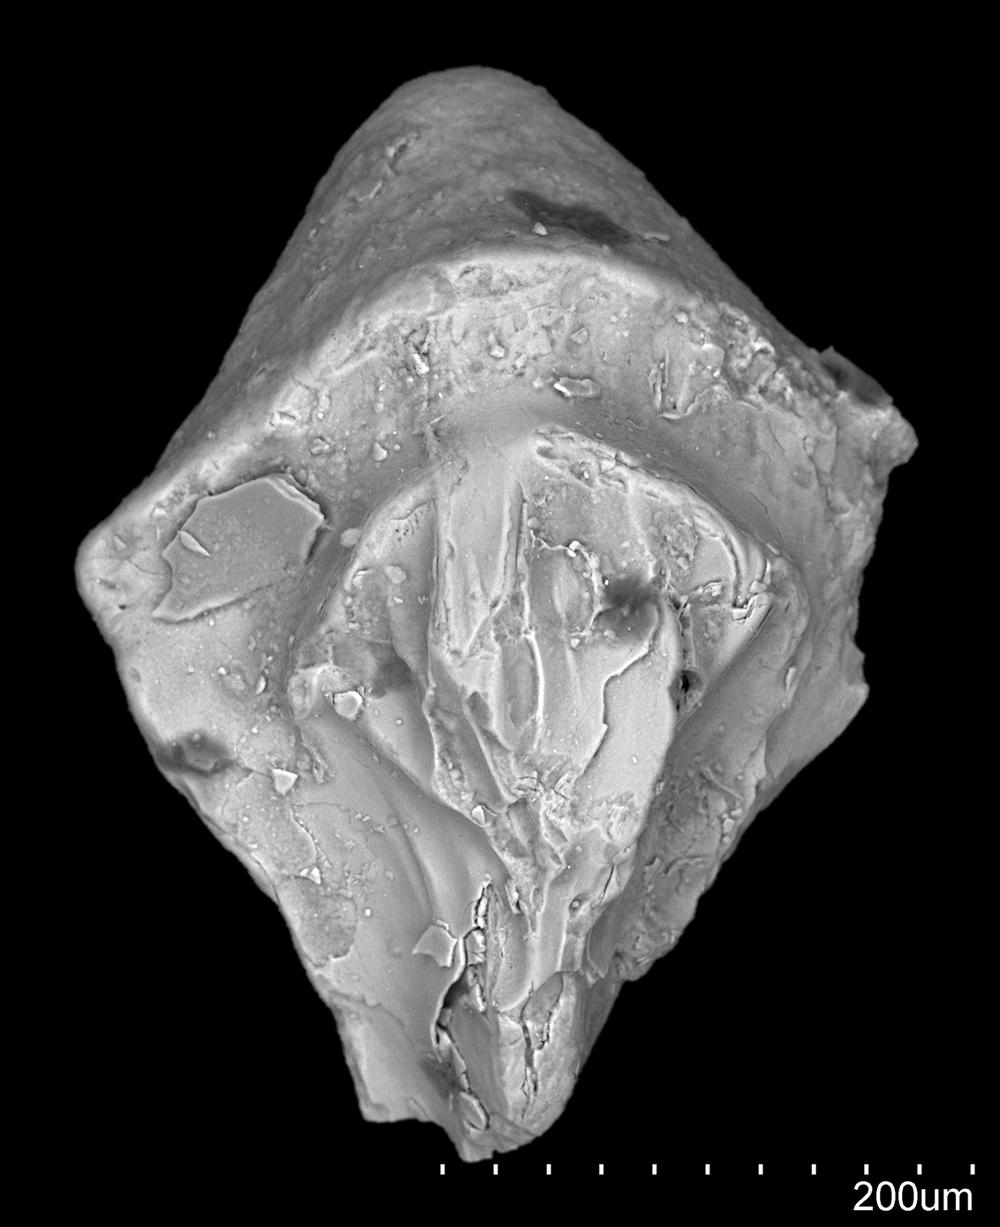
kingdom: Animalia
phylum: Chordata
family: Cheiracanthidae
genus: Ginkgolepis
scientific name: Ginkgolepis
